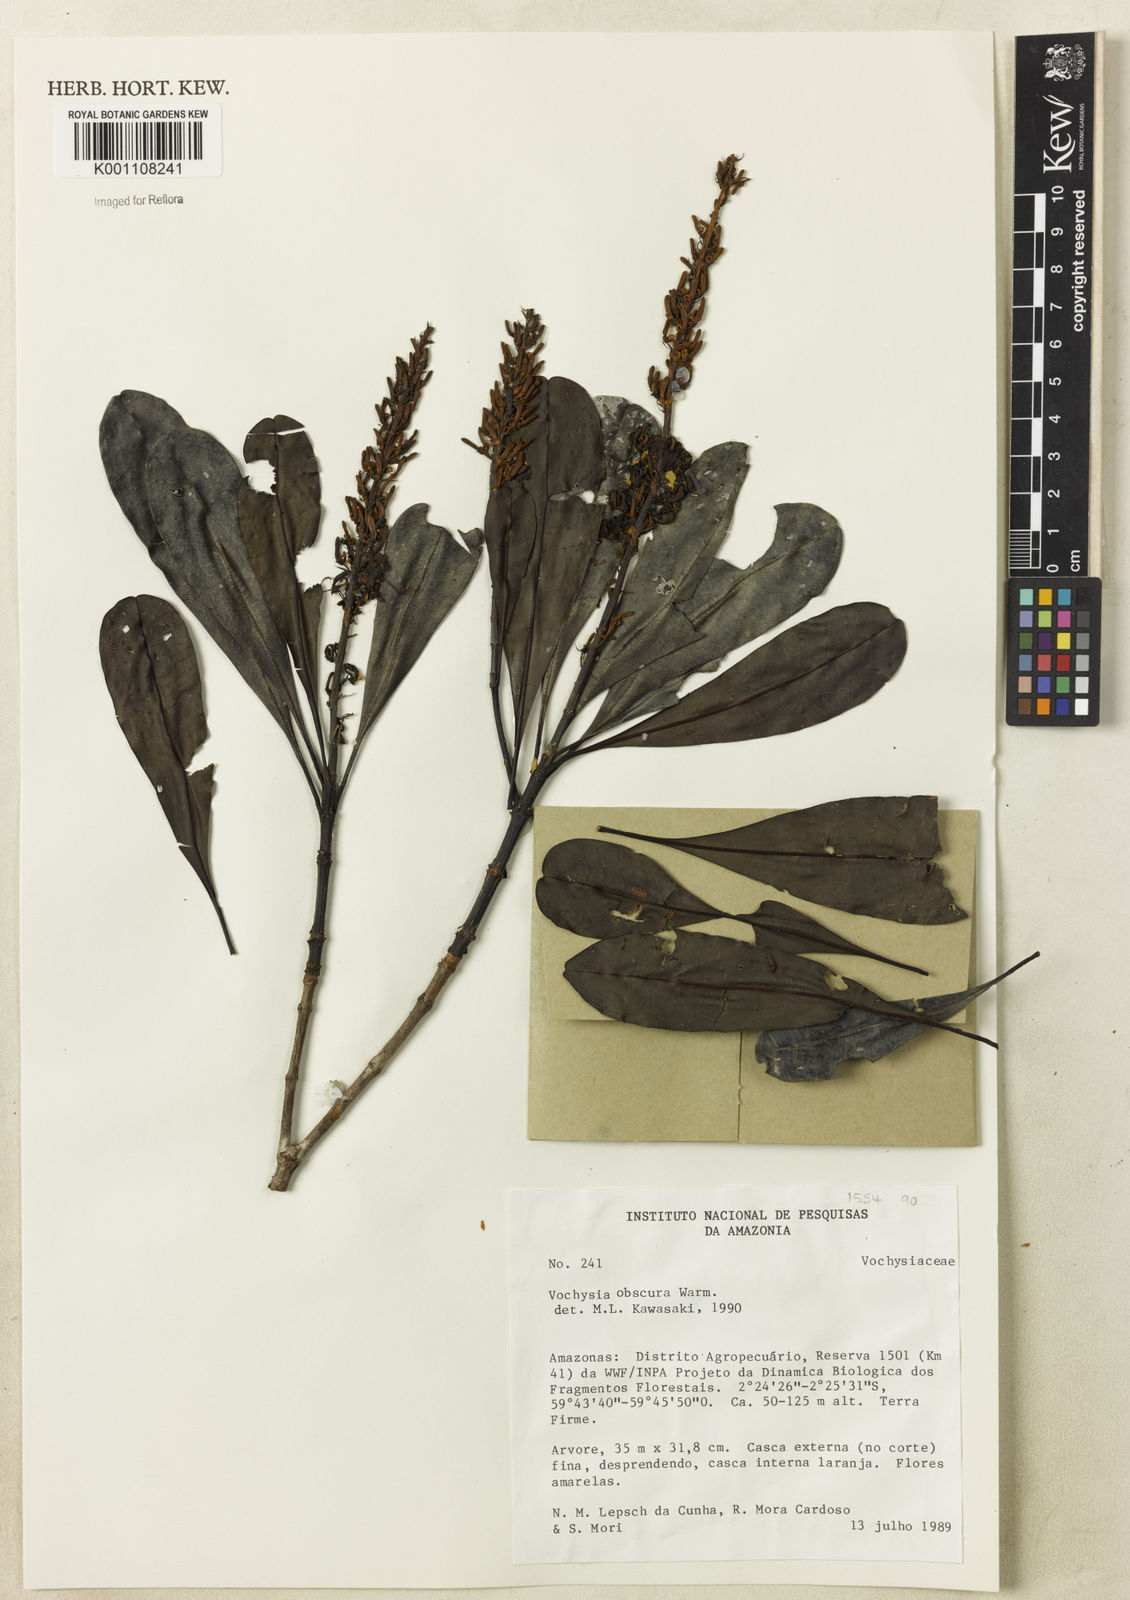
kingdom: Plantae
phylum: Tracheophyta
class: Magnoliopsida
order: Myrtales
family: Vochysiaceae
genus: Vochysia
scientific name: Vochysia obscura
